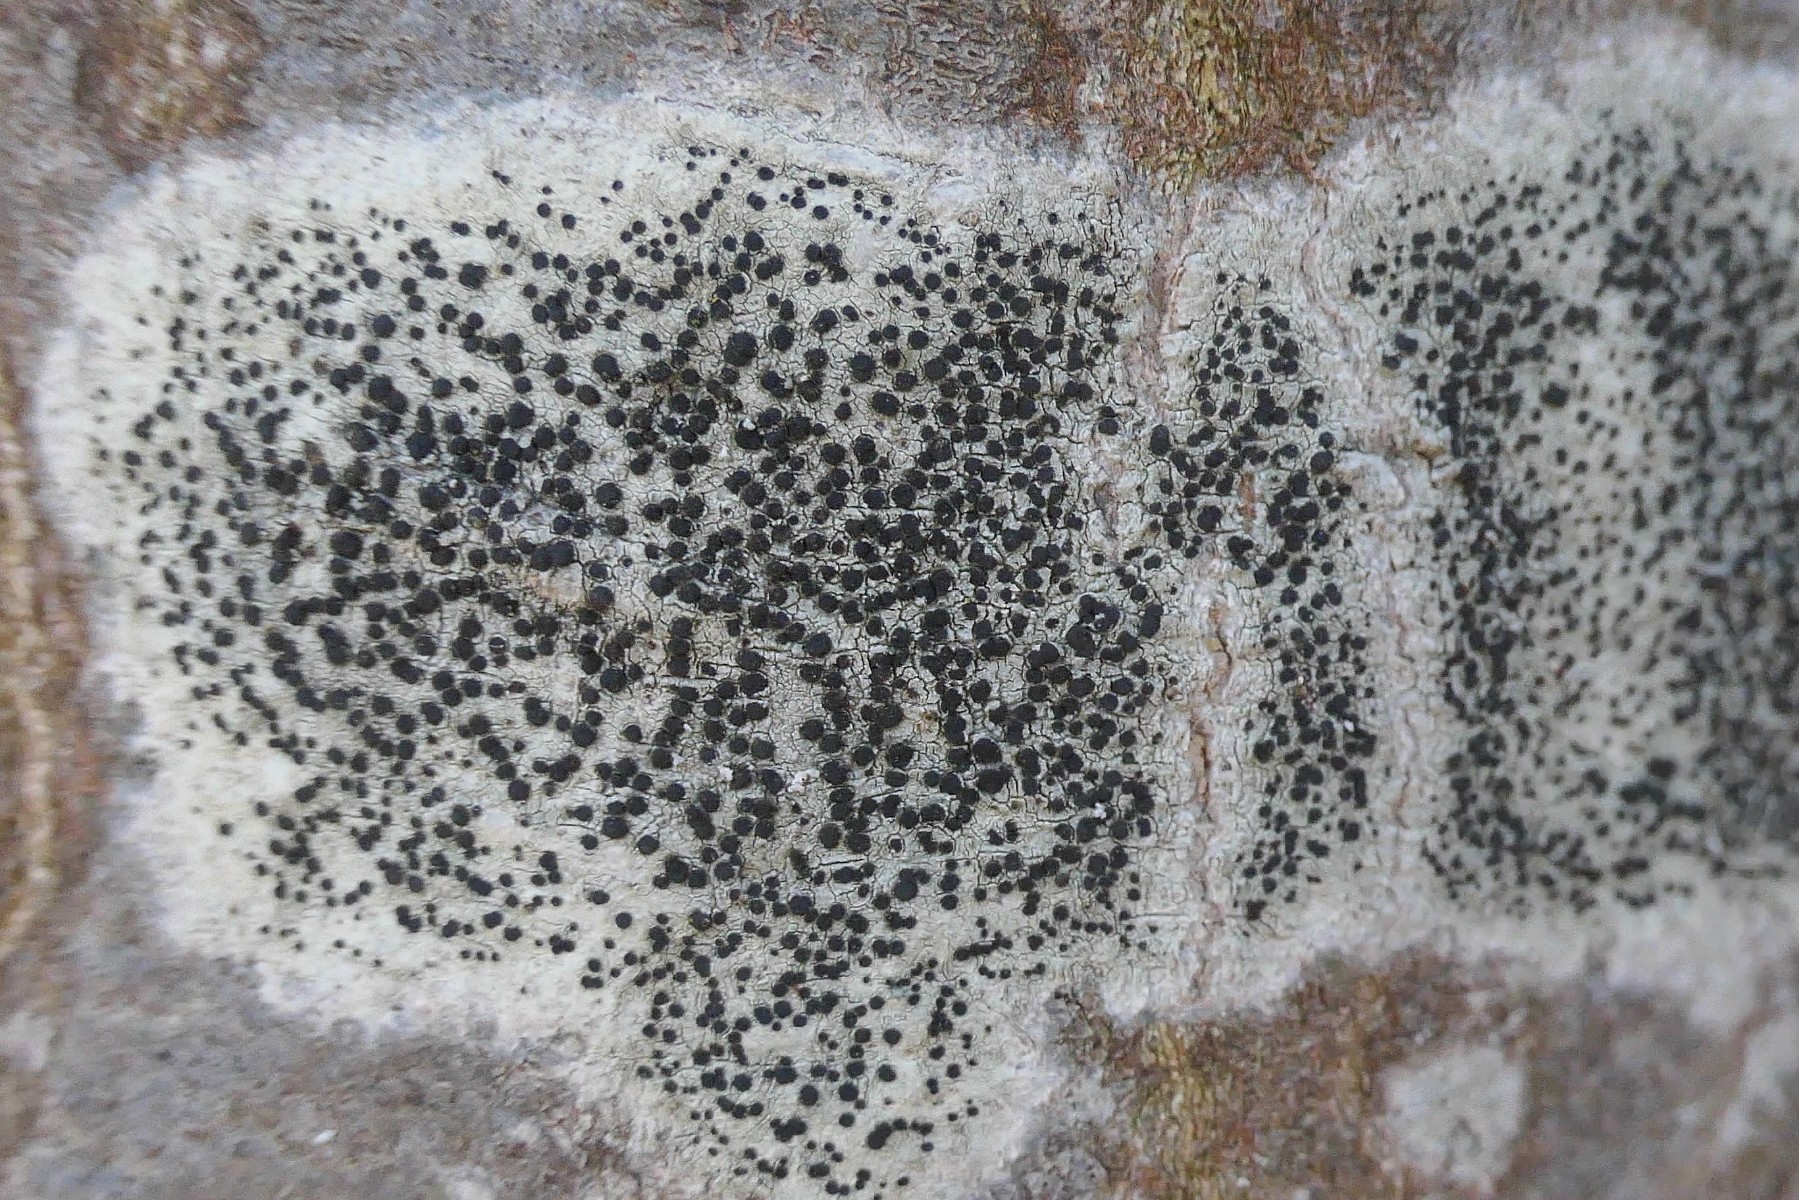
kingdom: Fungi
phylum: Ascomycota
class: Lecanoromycetes
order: Lecanorales
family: Lecanoraceae
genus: Lecidella
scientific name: Lecidella elaeochroma
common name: grågrøn skivelav
